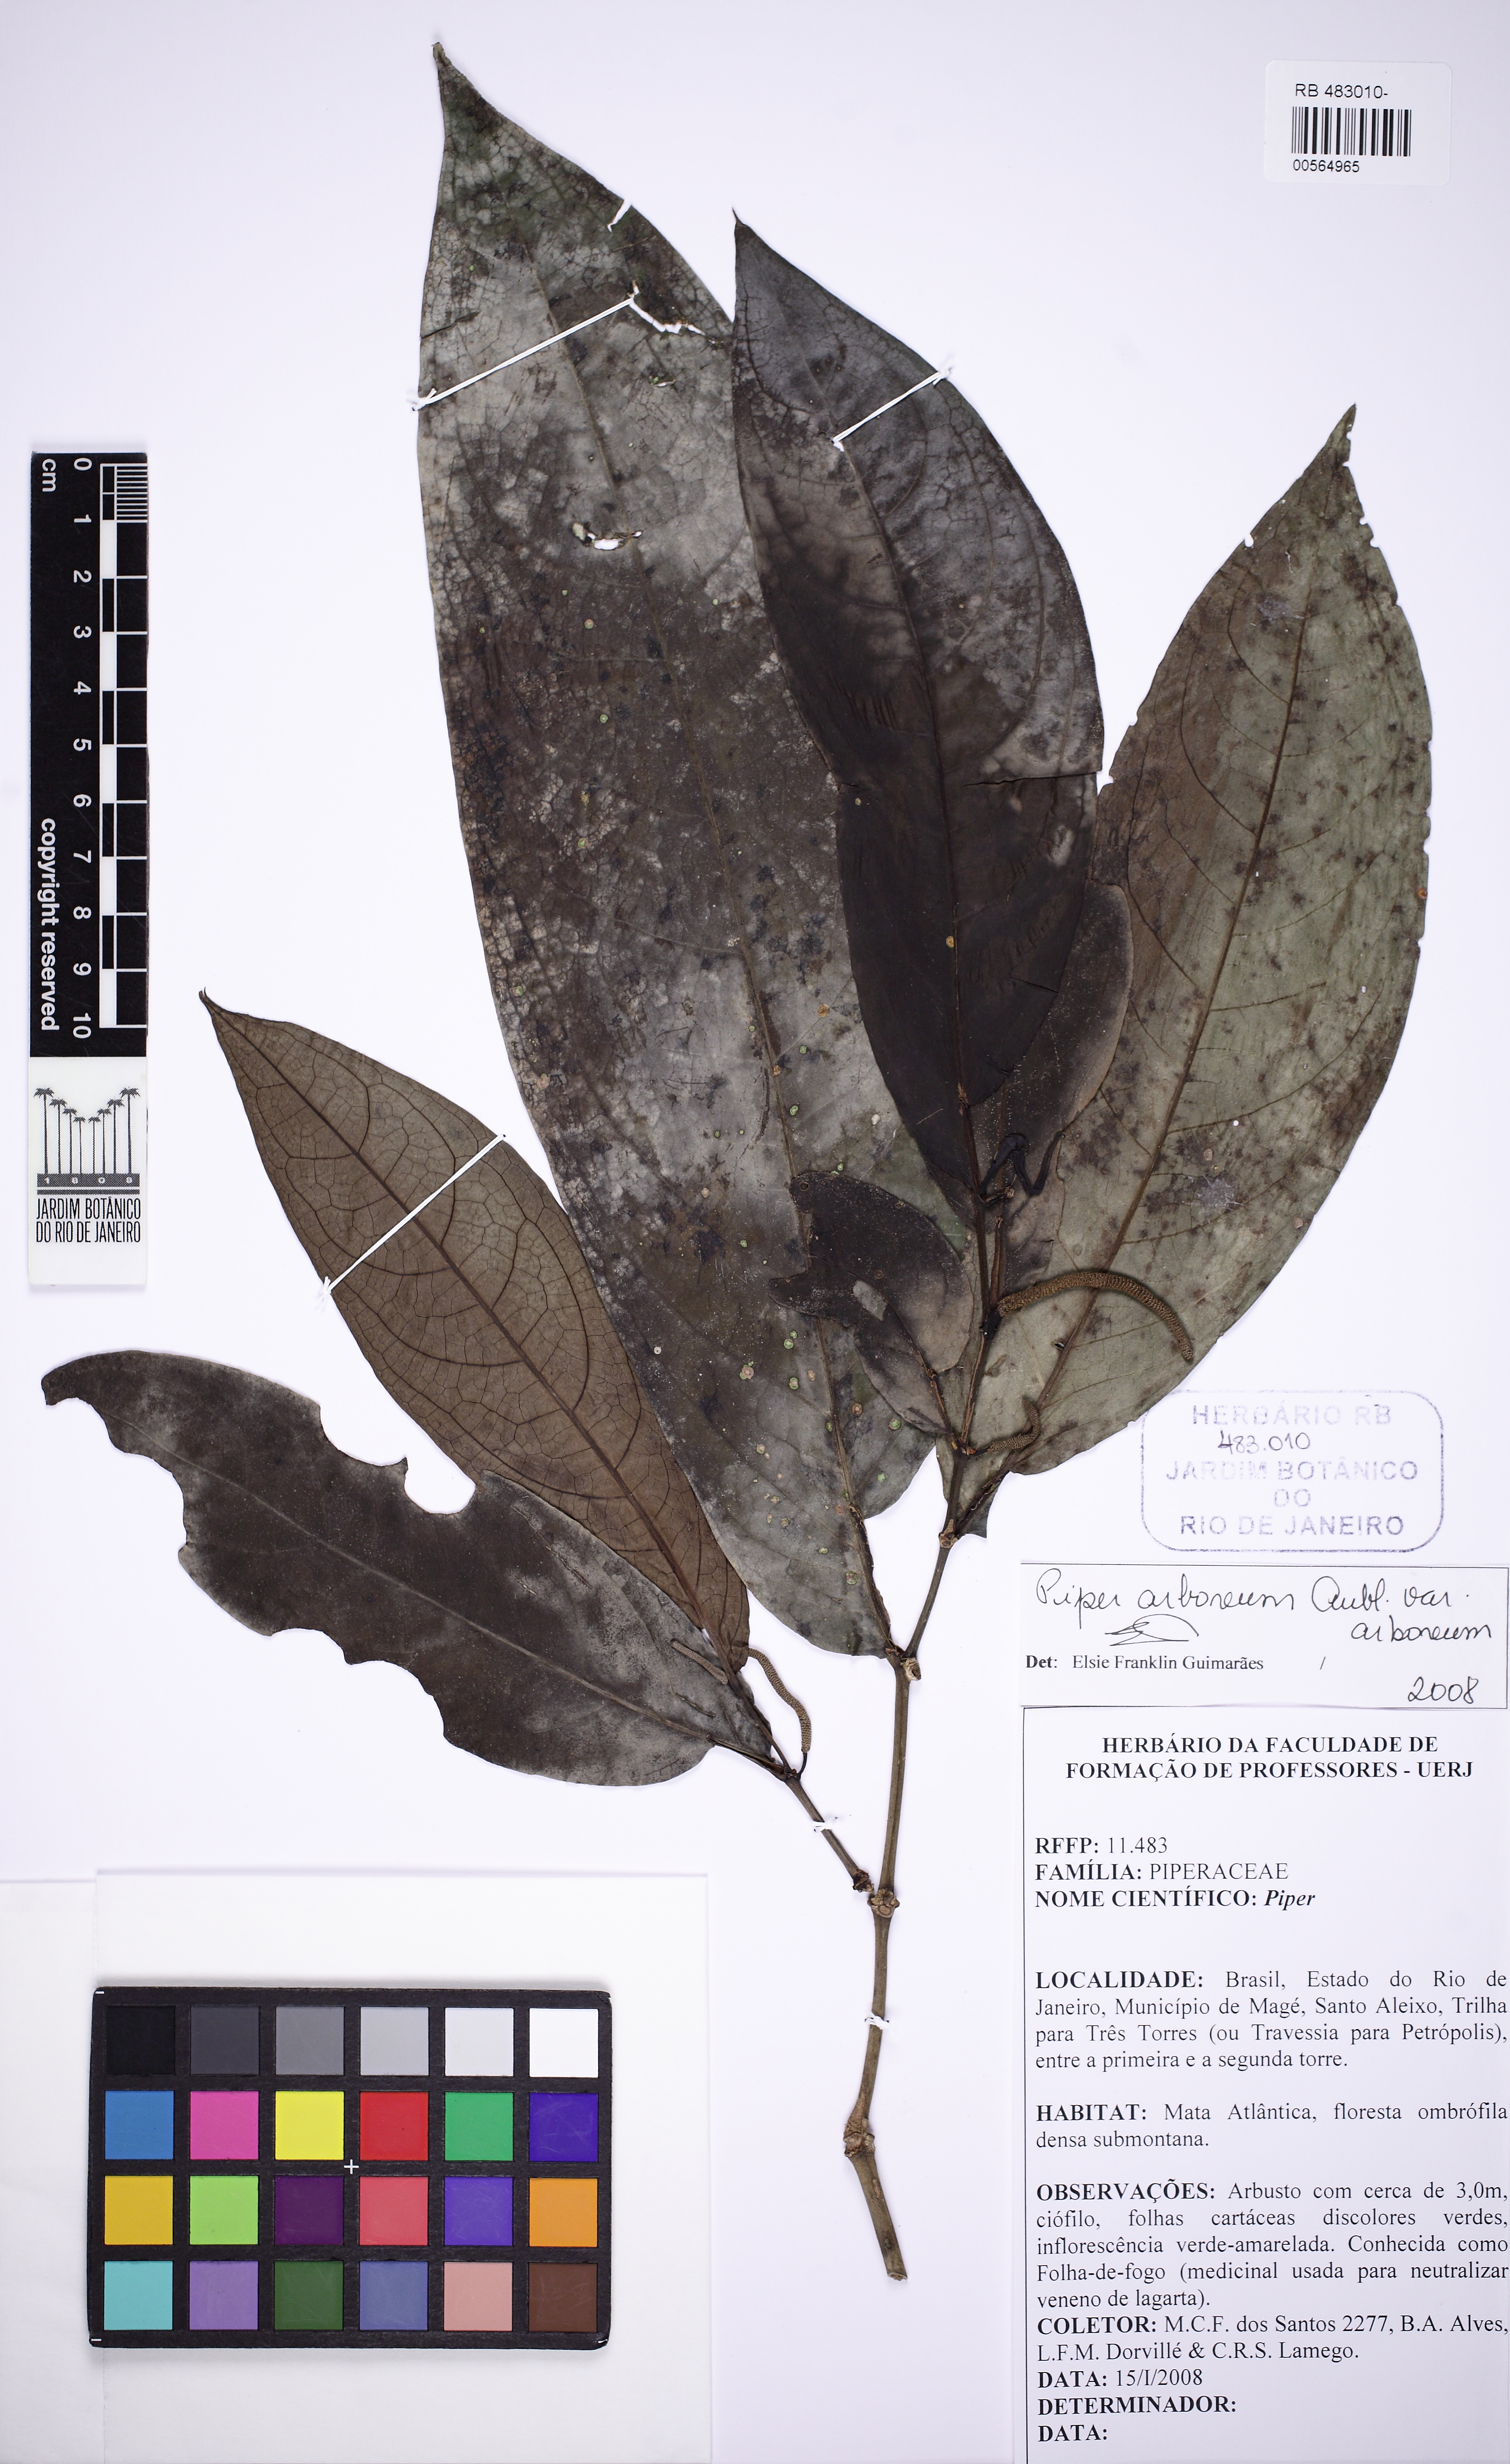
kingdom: Plantae
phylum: Tracheophyta
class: Magnoliopsida
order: Piperales
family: Piperaceae
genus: Piper
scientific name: Piper arboreum
